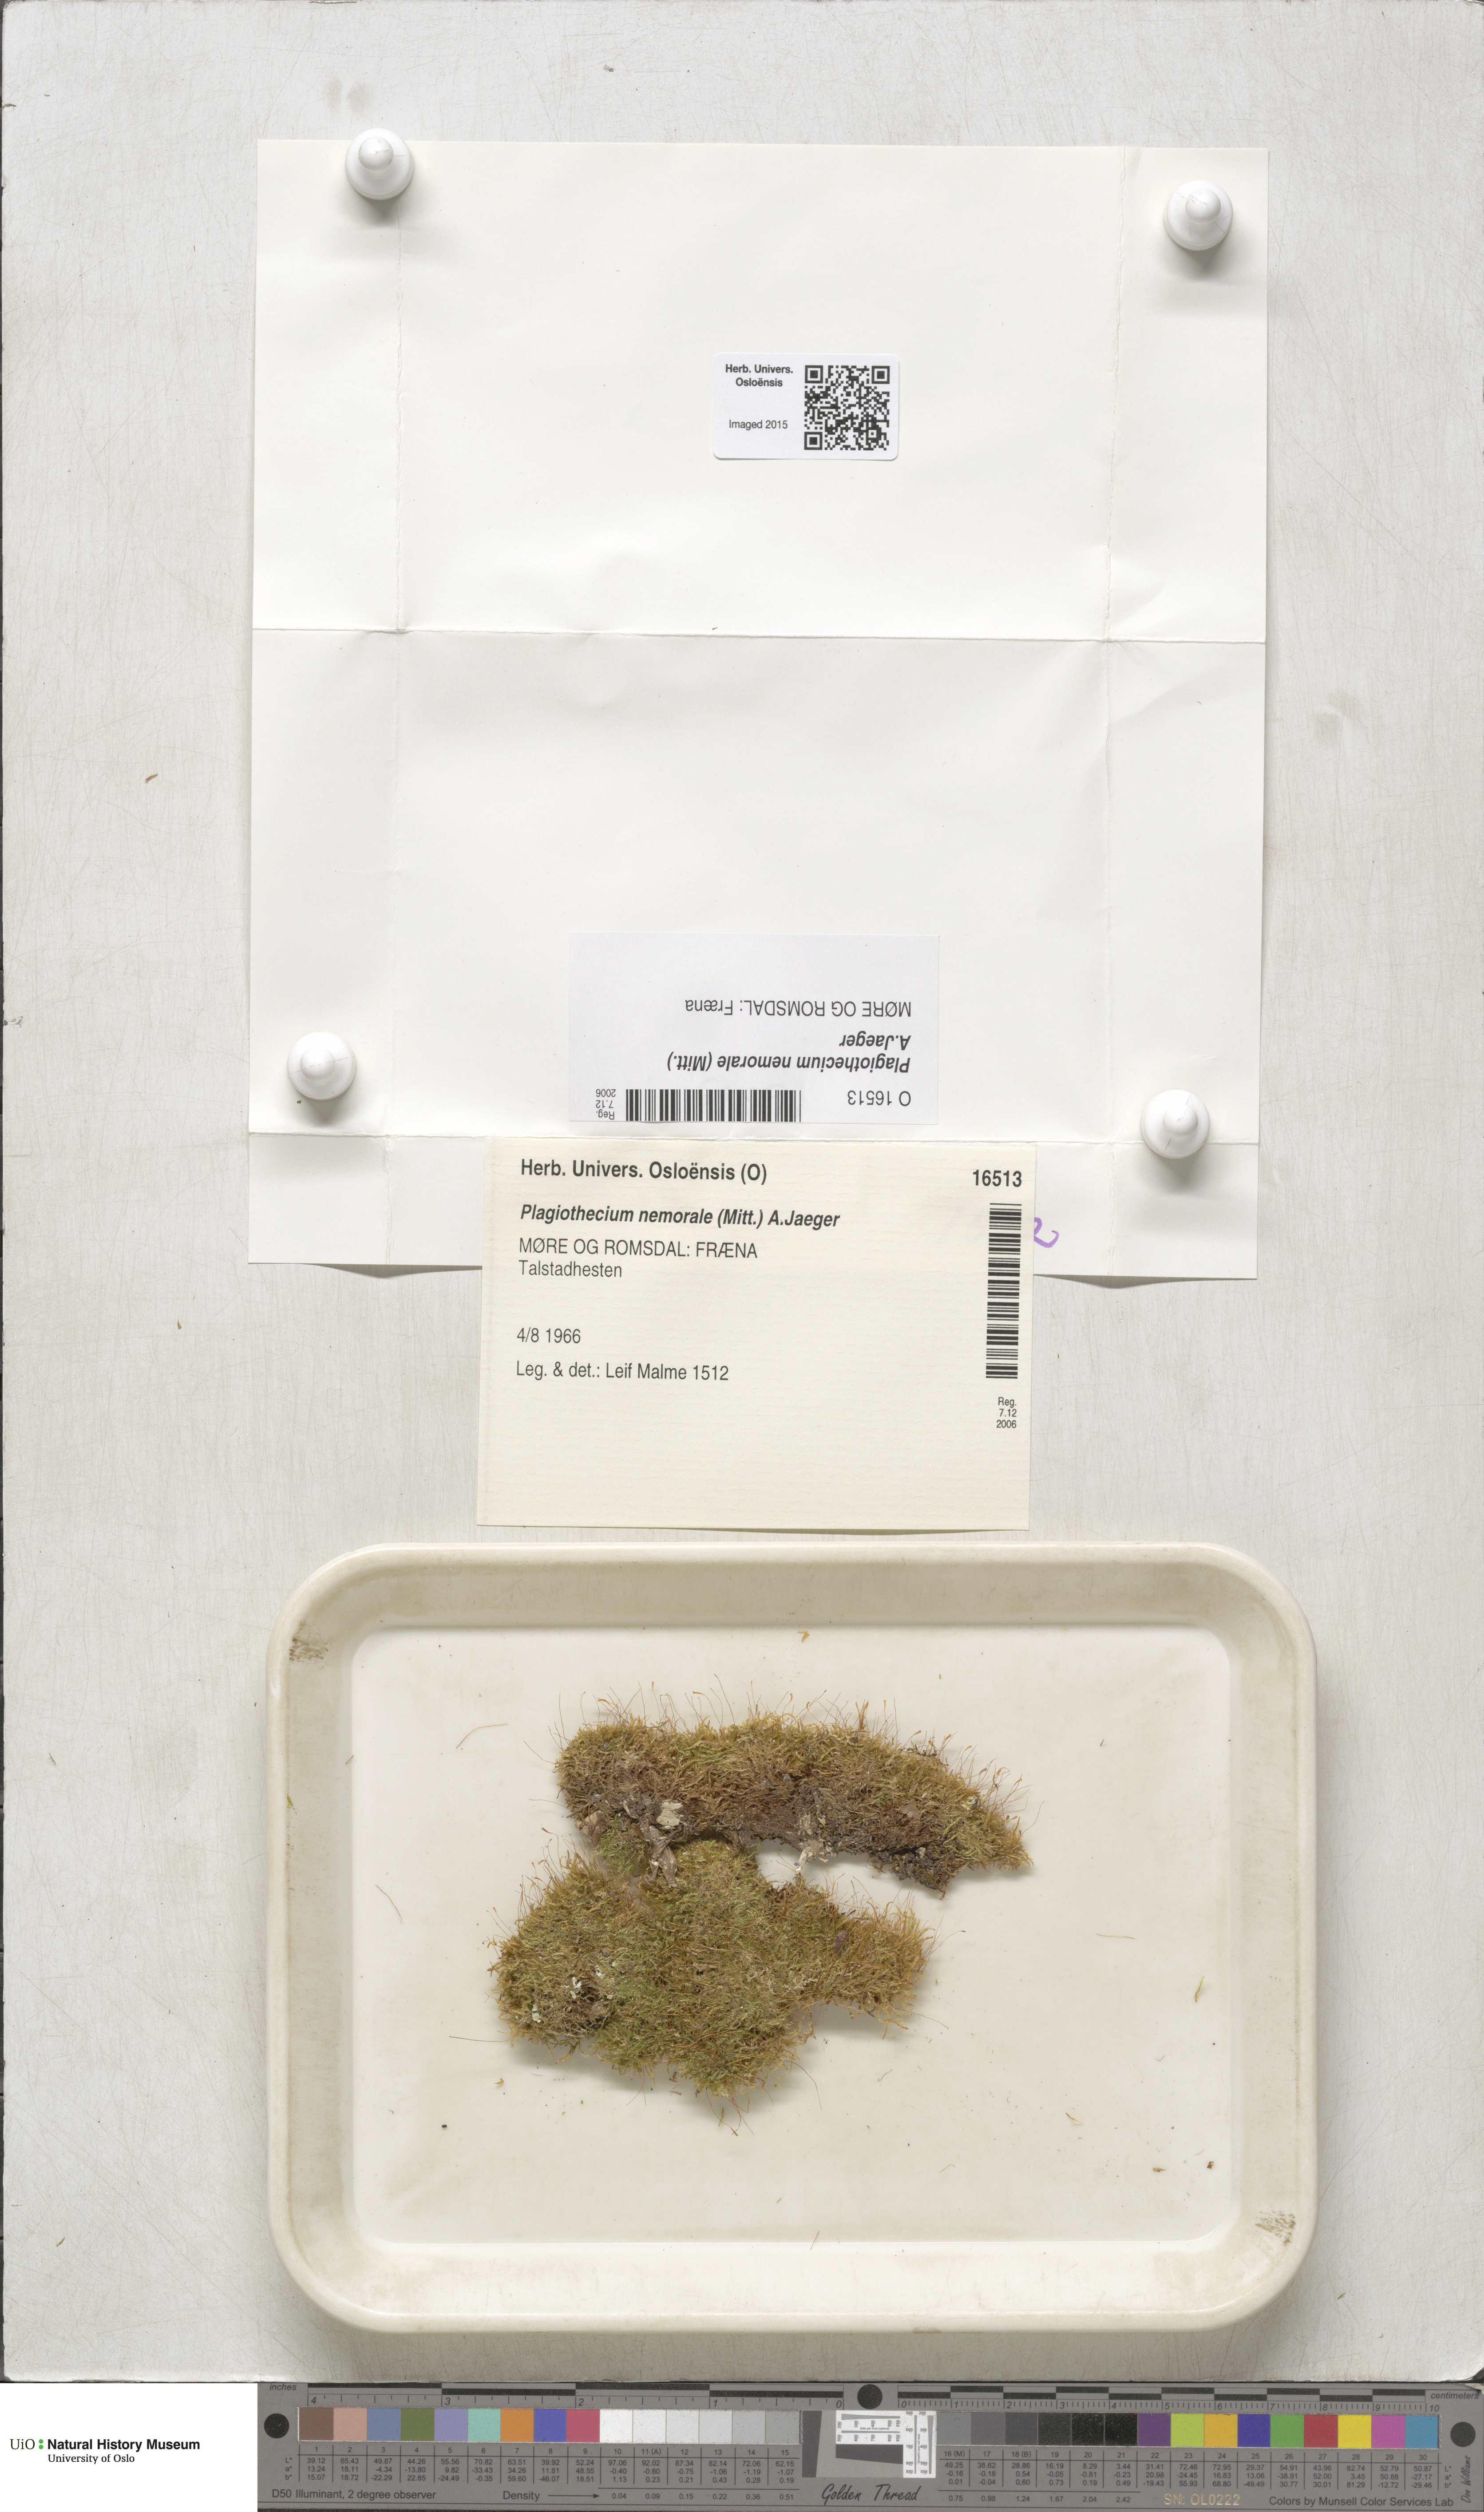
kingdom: Plantae
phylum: Bryophyta
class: Bryopsida
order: Hypnales
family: Plagiotheciaceae
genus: Plagiothecium
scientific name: Plagiothecium nemorale
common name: Woodsy silk-moss
